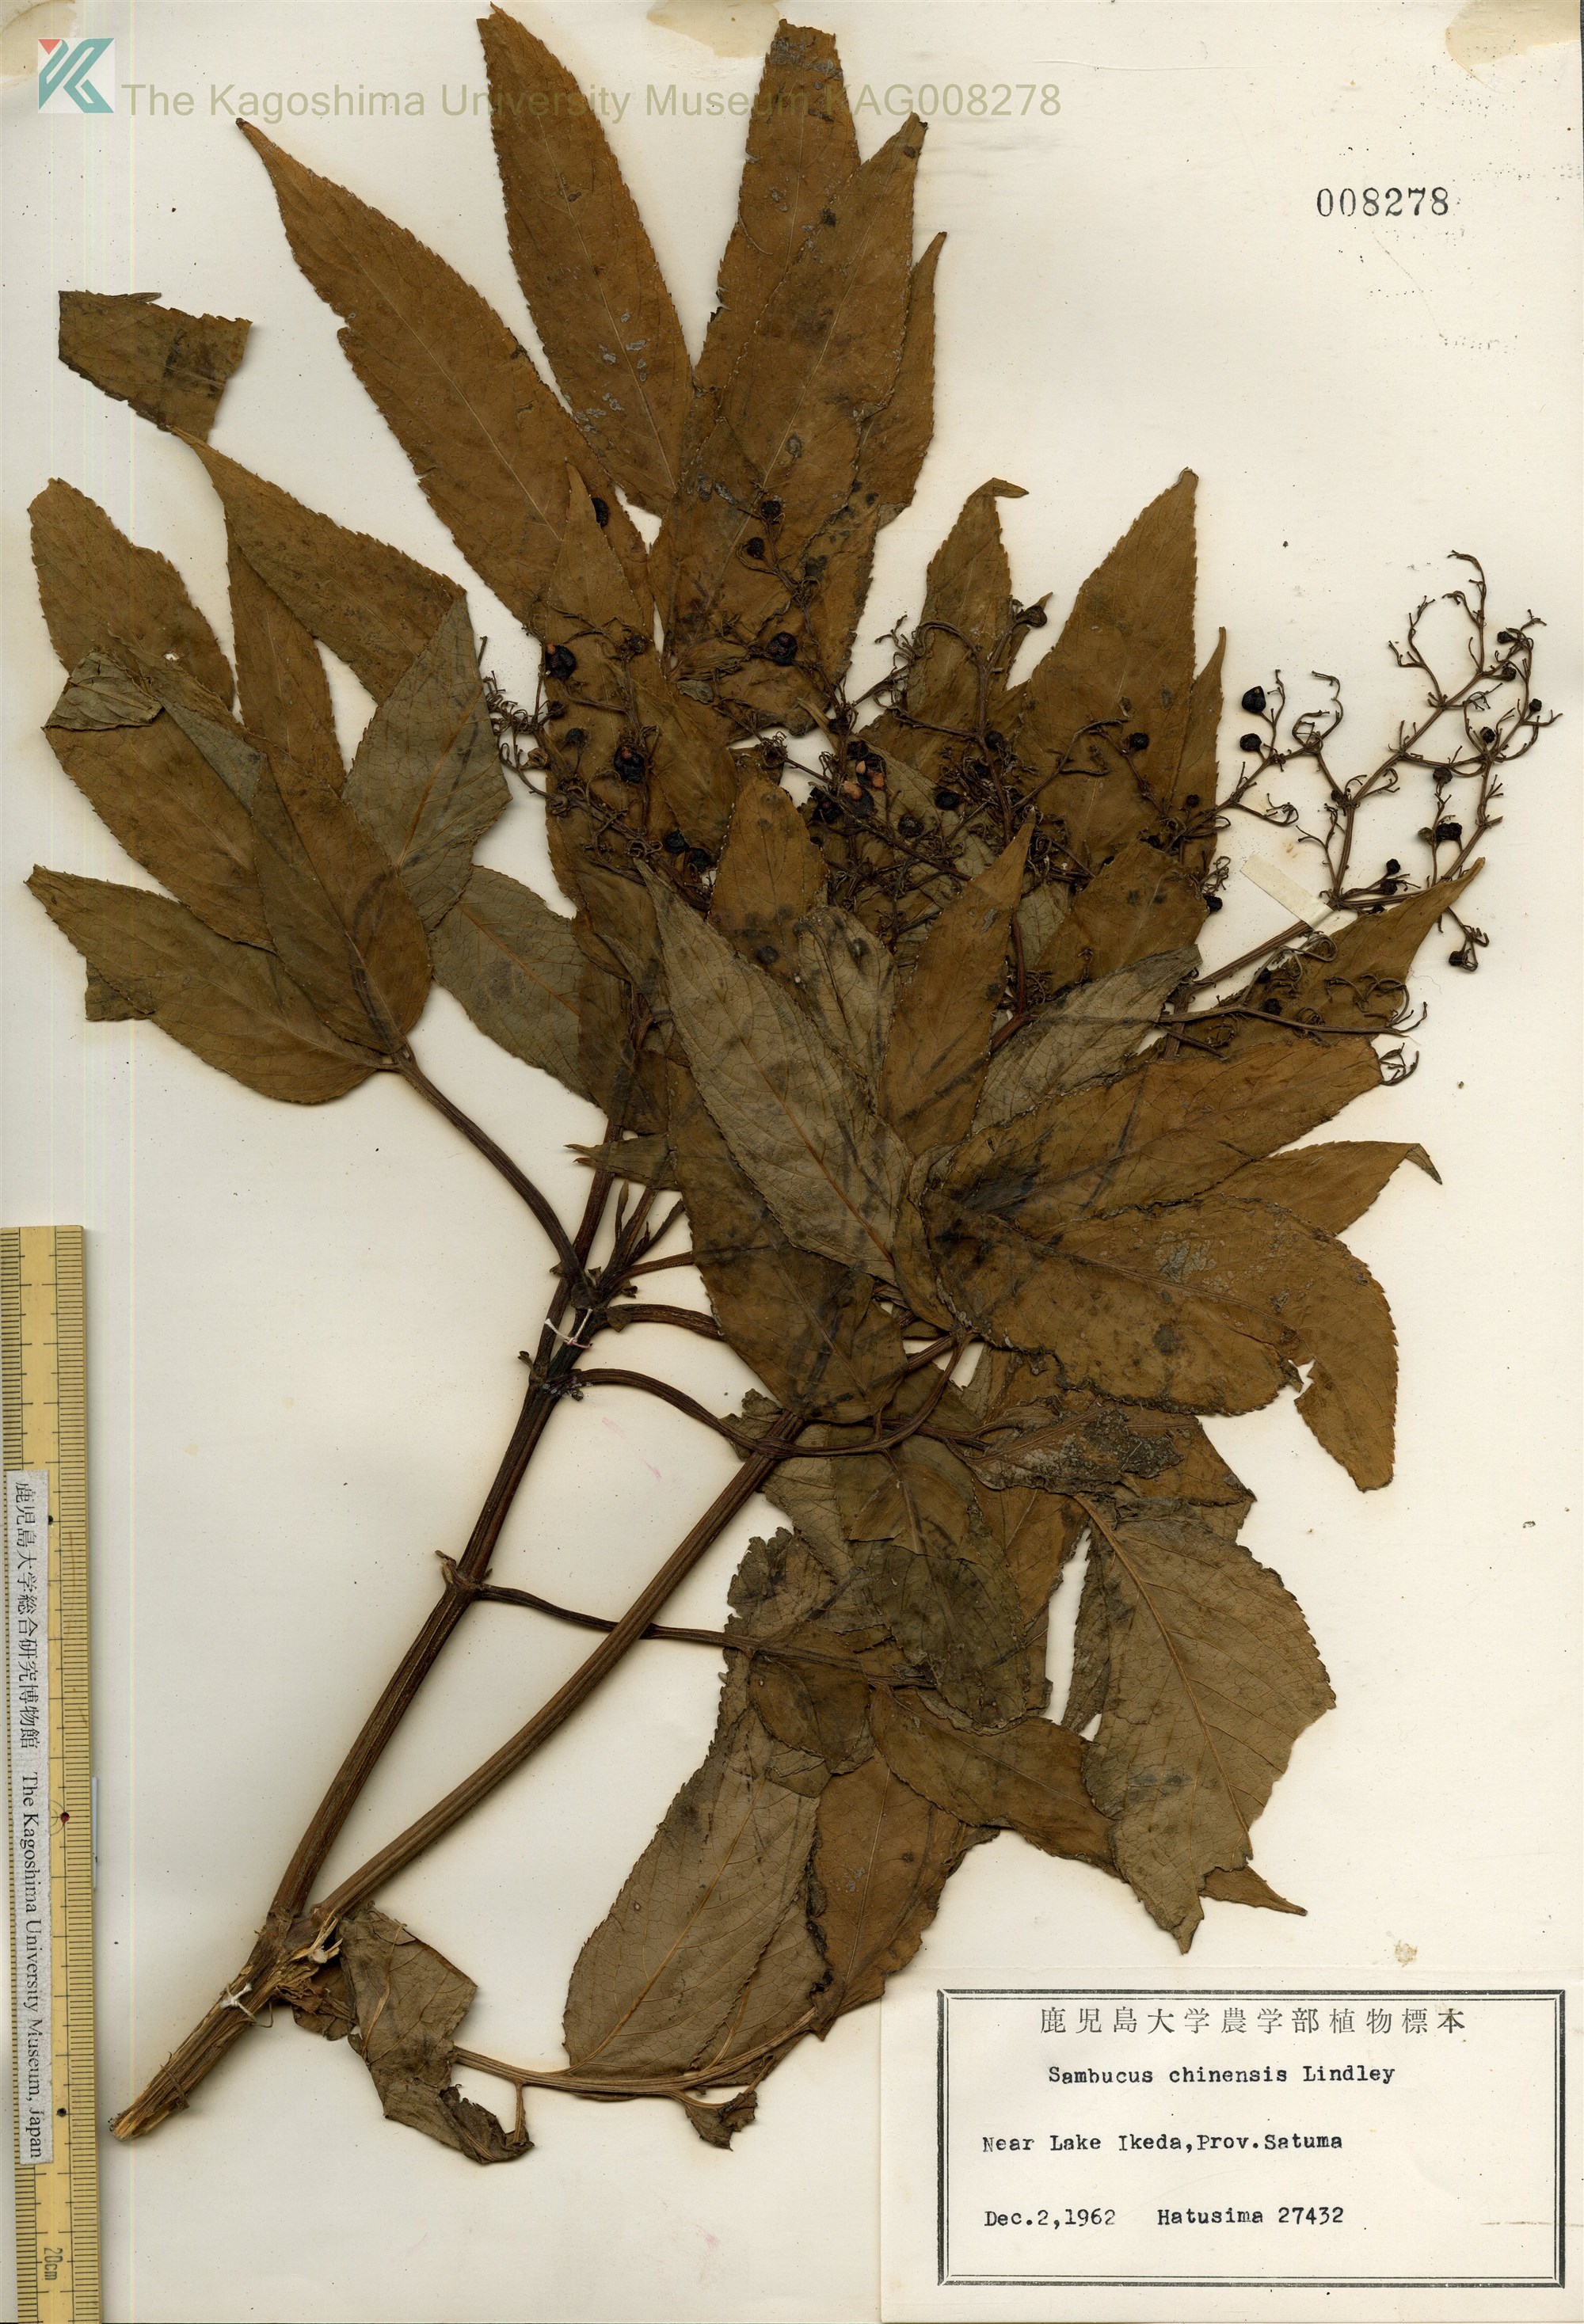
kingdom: Plantae
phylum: Tracheophyta
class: Magnoliopsida
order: Dipsacales
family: Viburnaceae
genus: Sambucus
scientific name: Sambucus javanica
